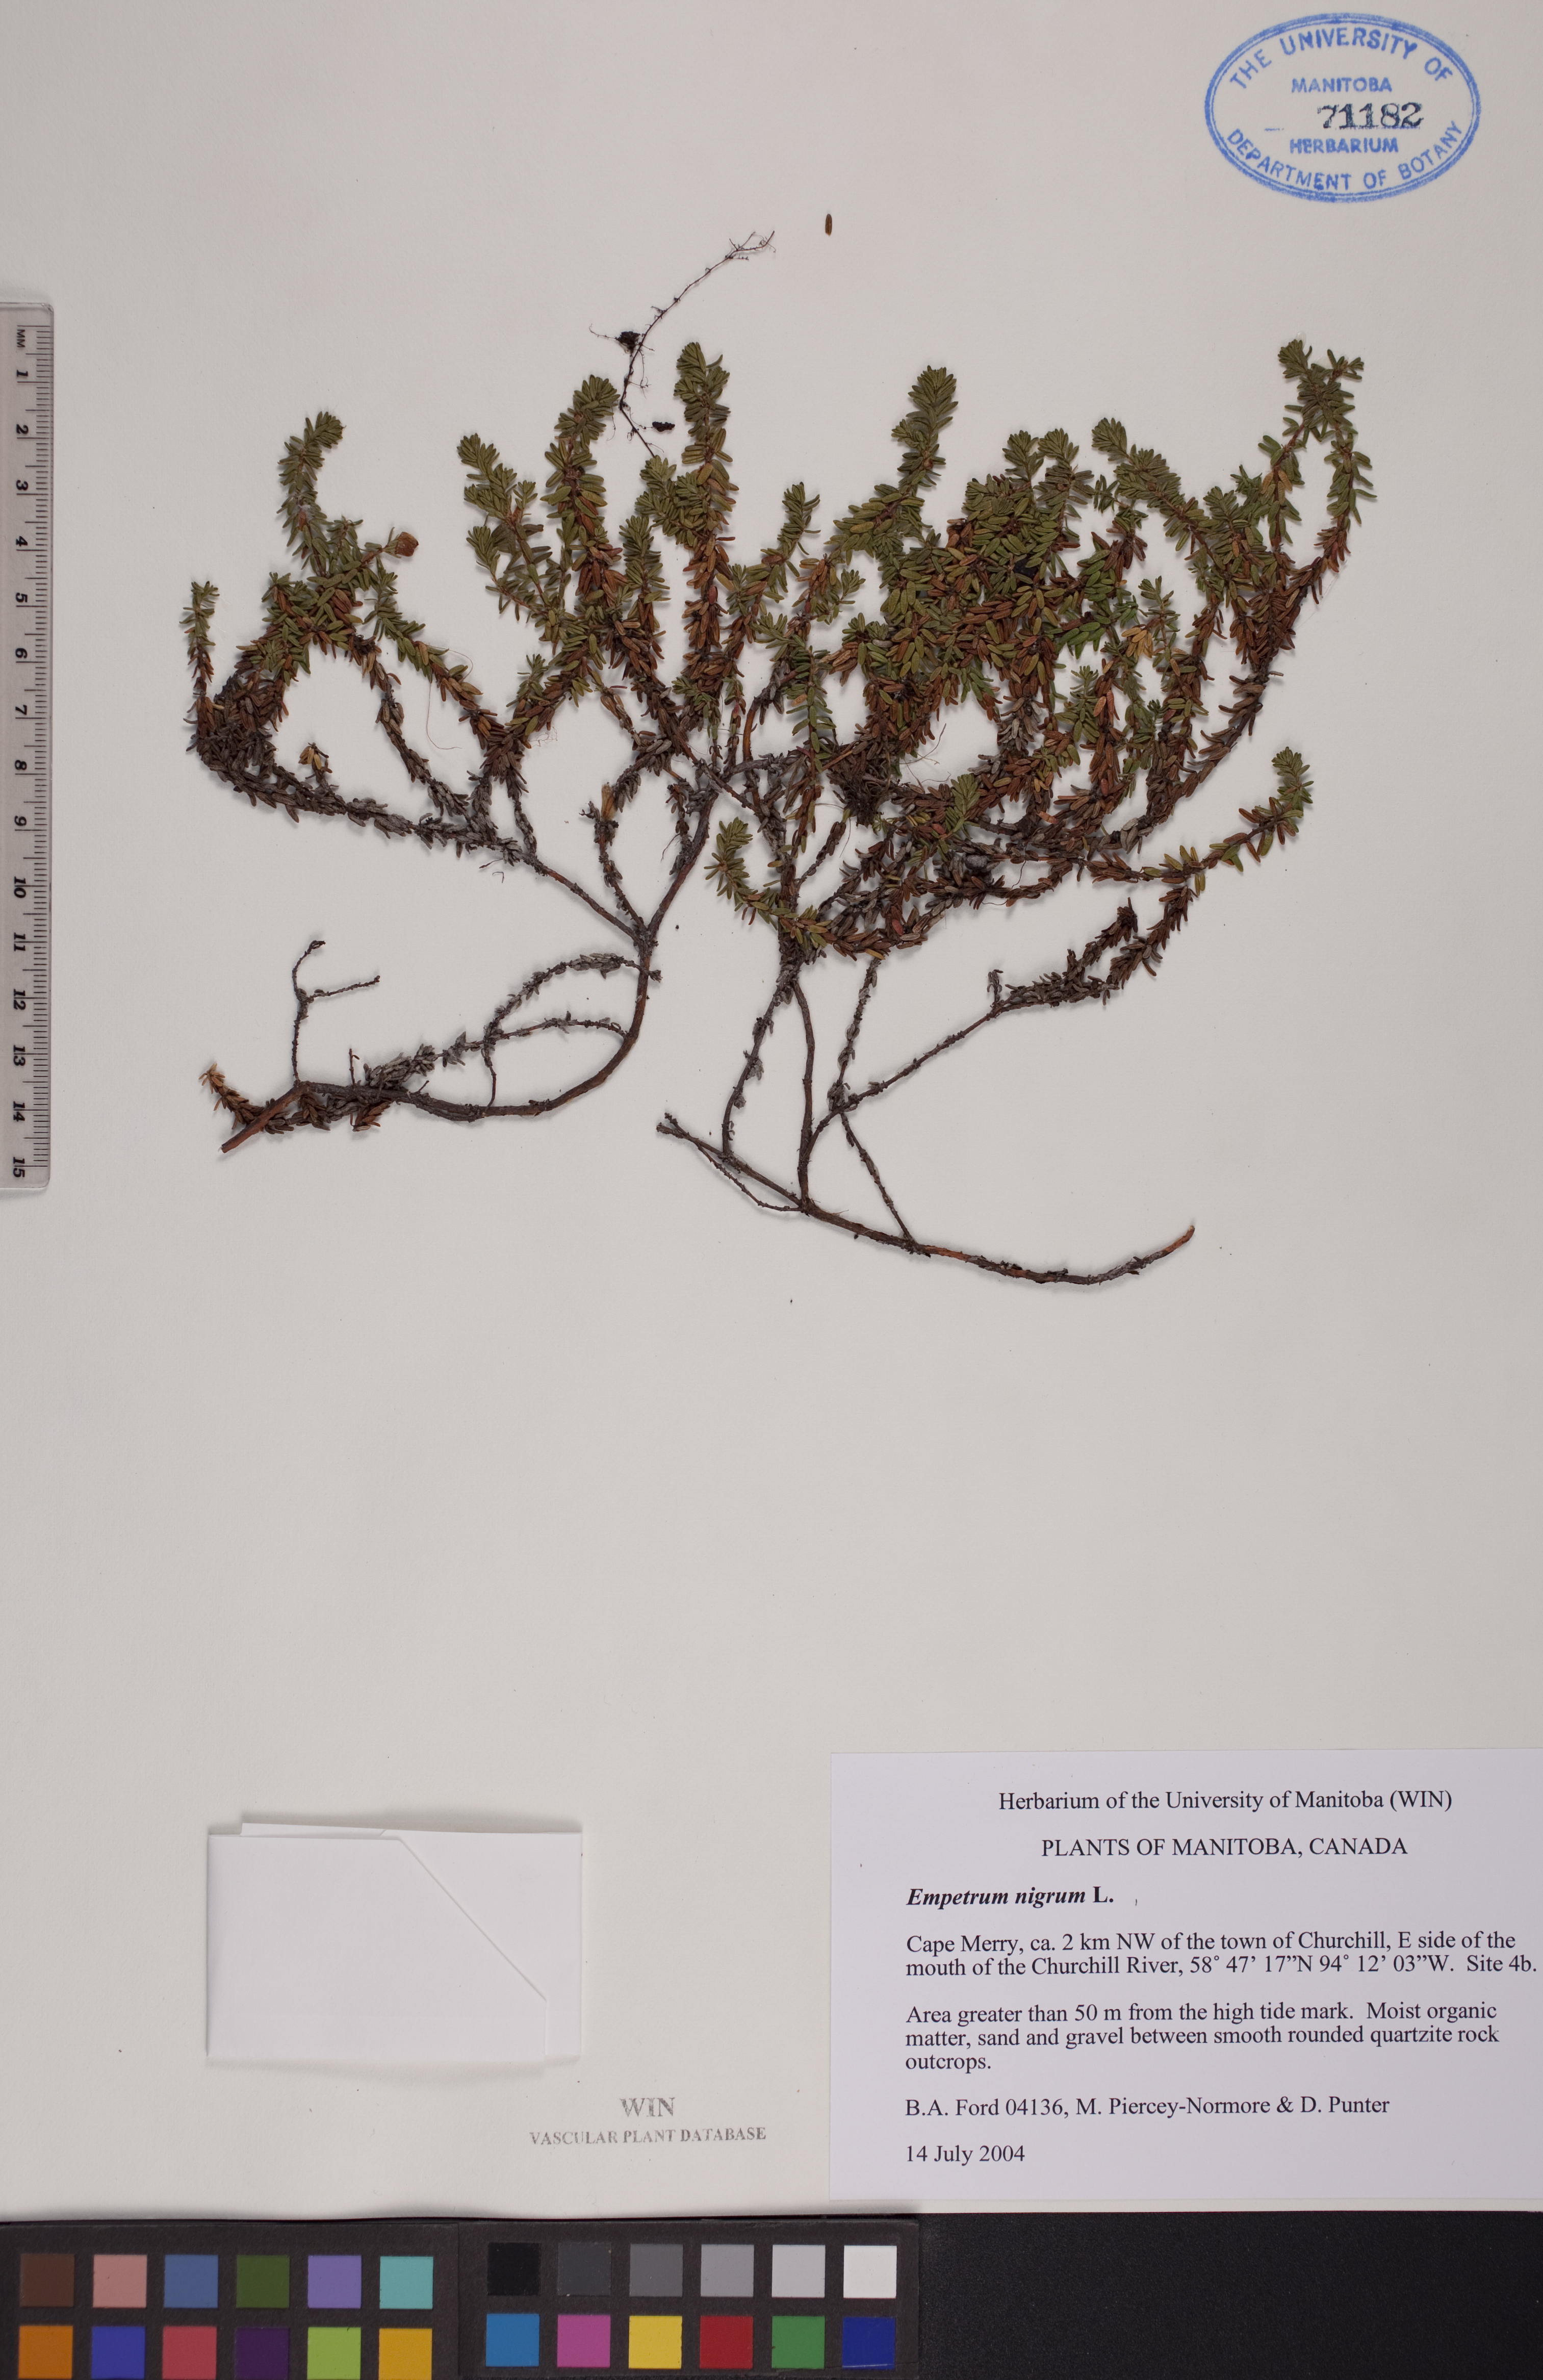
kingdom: Plantae
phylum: Tracheophyta
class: Magnoliopsida
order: Ericales
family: Ericaceae
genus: Empetrum
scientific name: Empetrum nigrum
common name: Black crowberry
